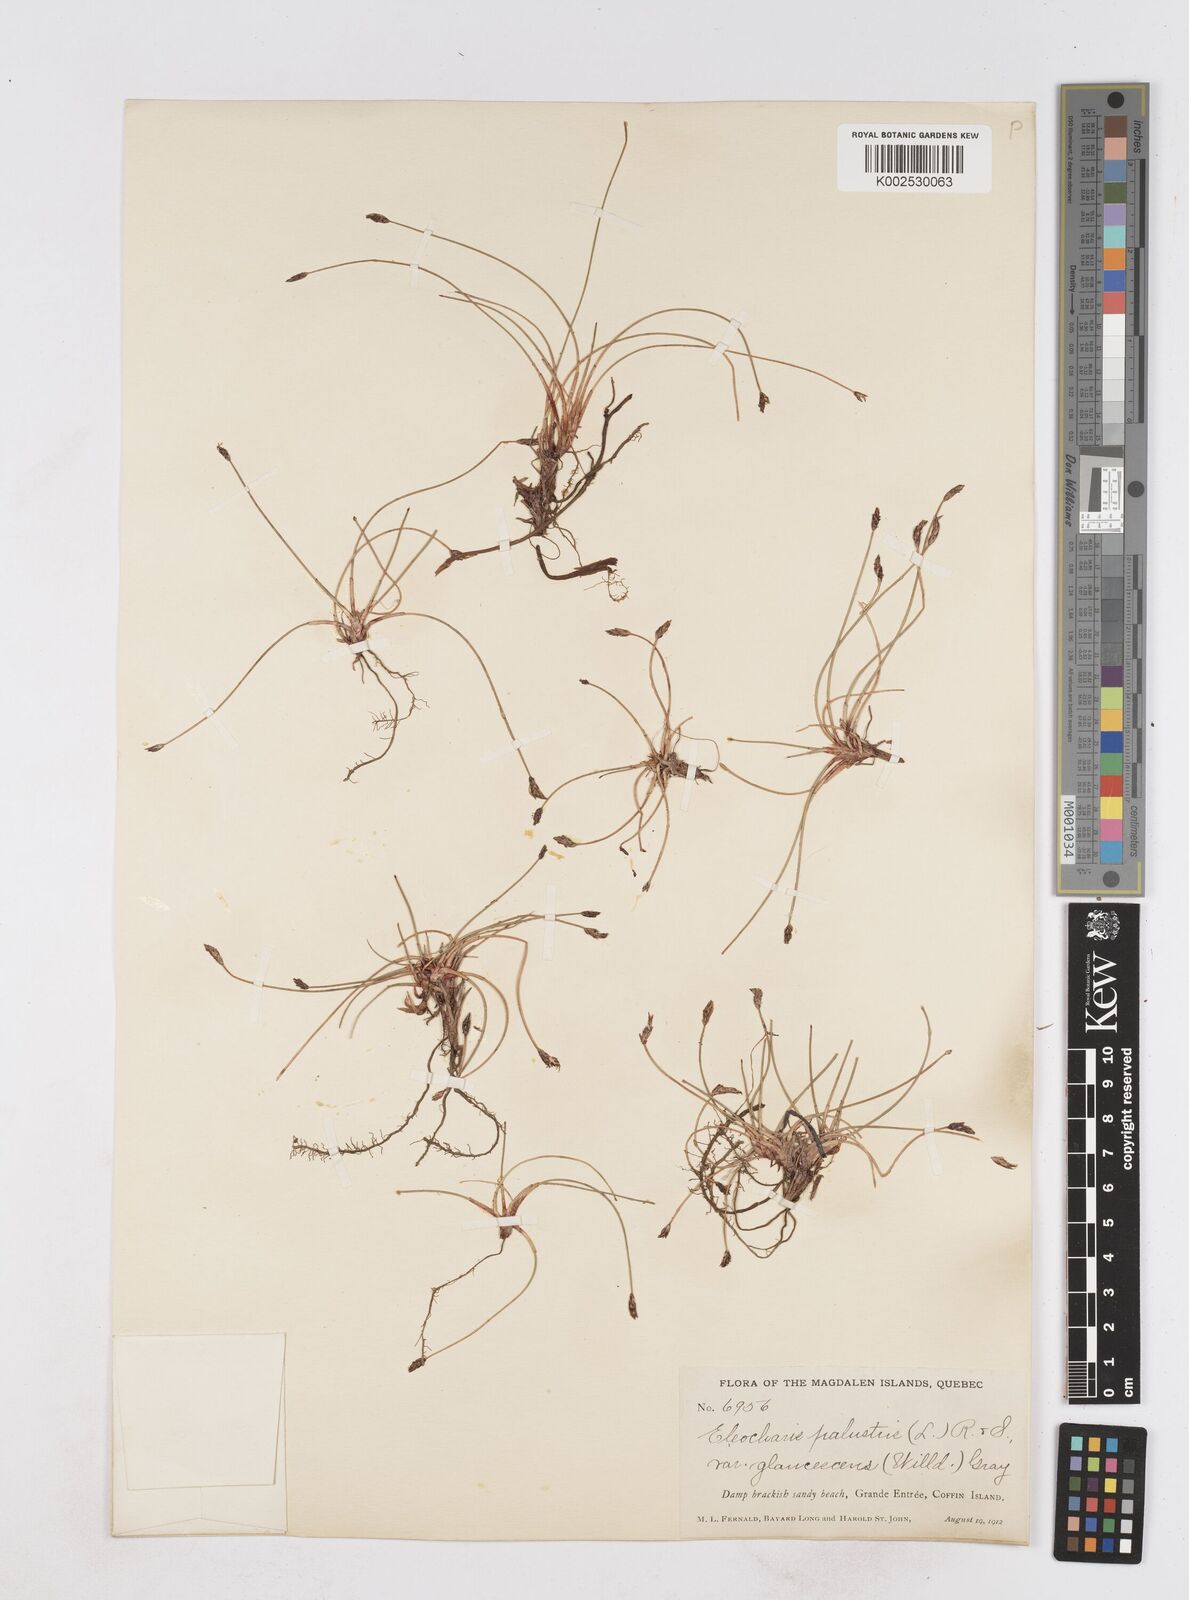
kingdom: Plantae
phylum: Tracheophyta
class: Liliopsida
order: Poales
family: Cyperaceae
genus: Eleocharis
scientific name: Eleocharis palustris
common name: Common spike-rush
